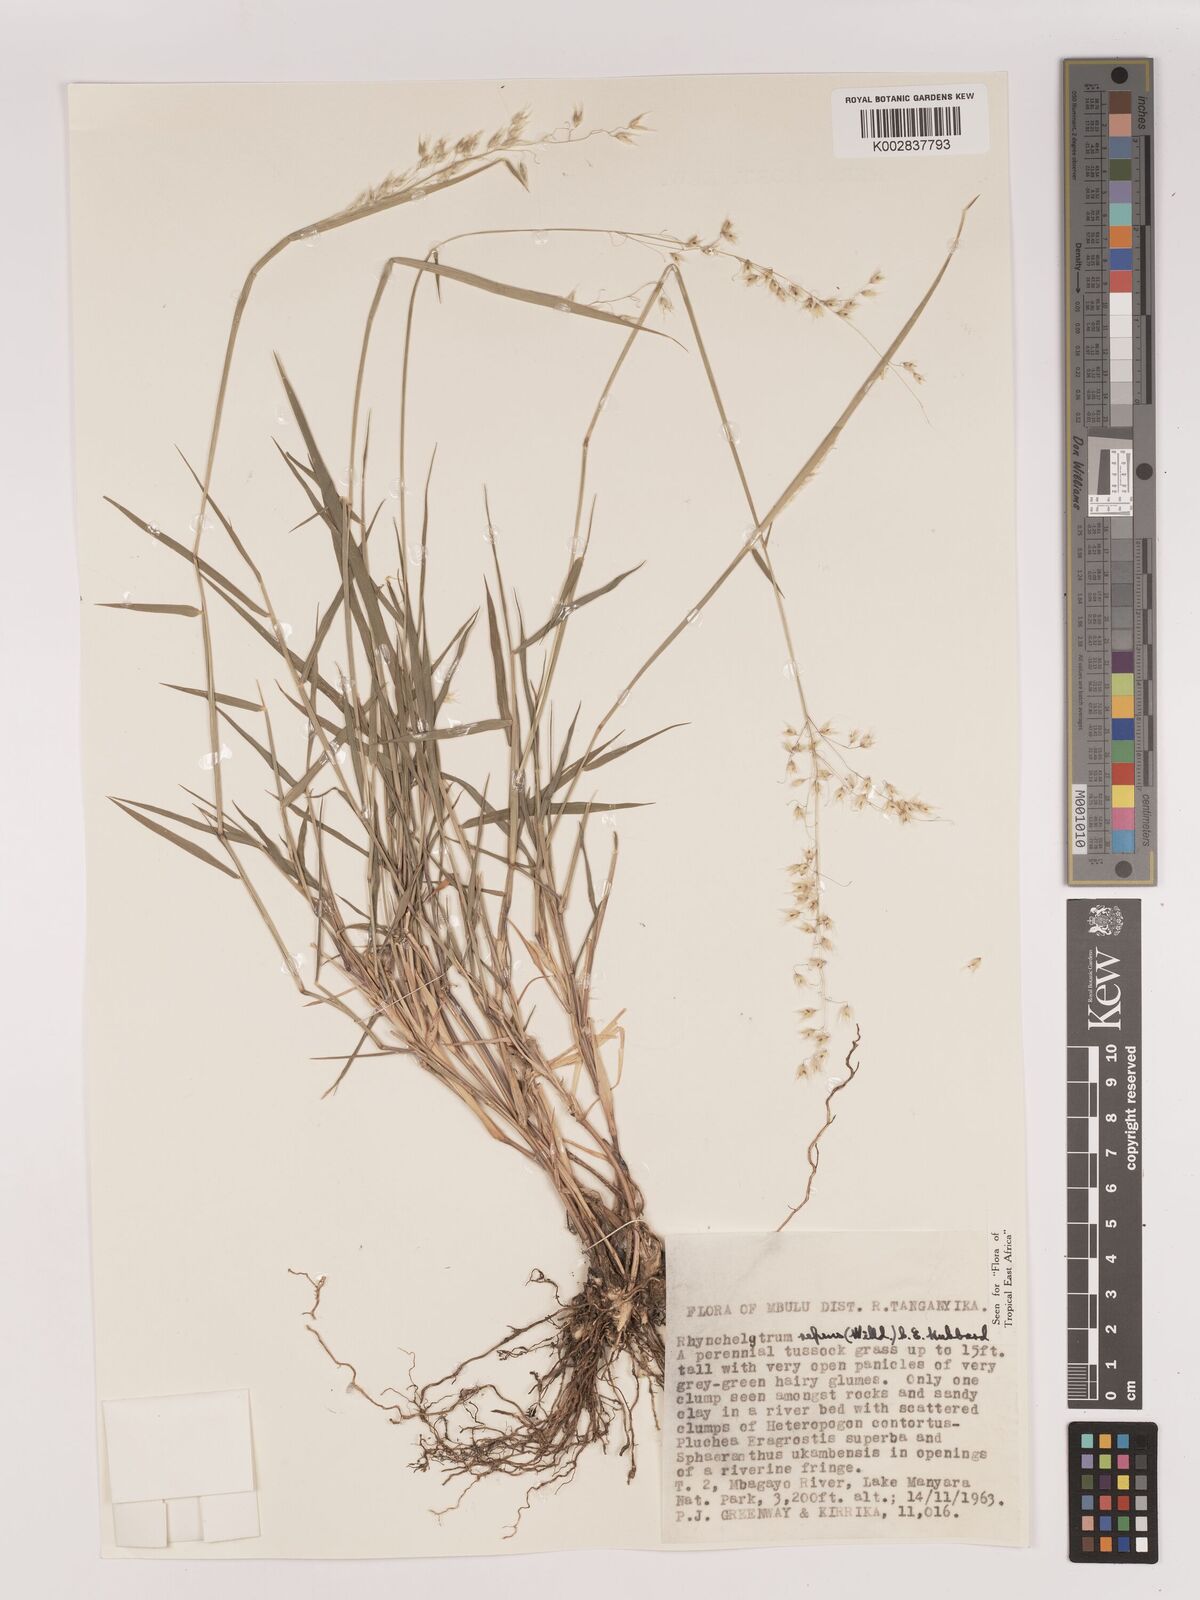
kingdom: Plantae
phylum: Tracheophyta
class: Liliopsida
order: Poales
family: Poaceae
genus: Melinis
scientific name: Melinis repens
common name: Rose natal grass
